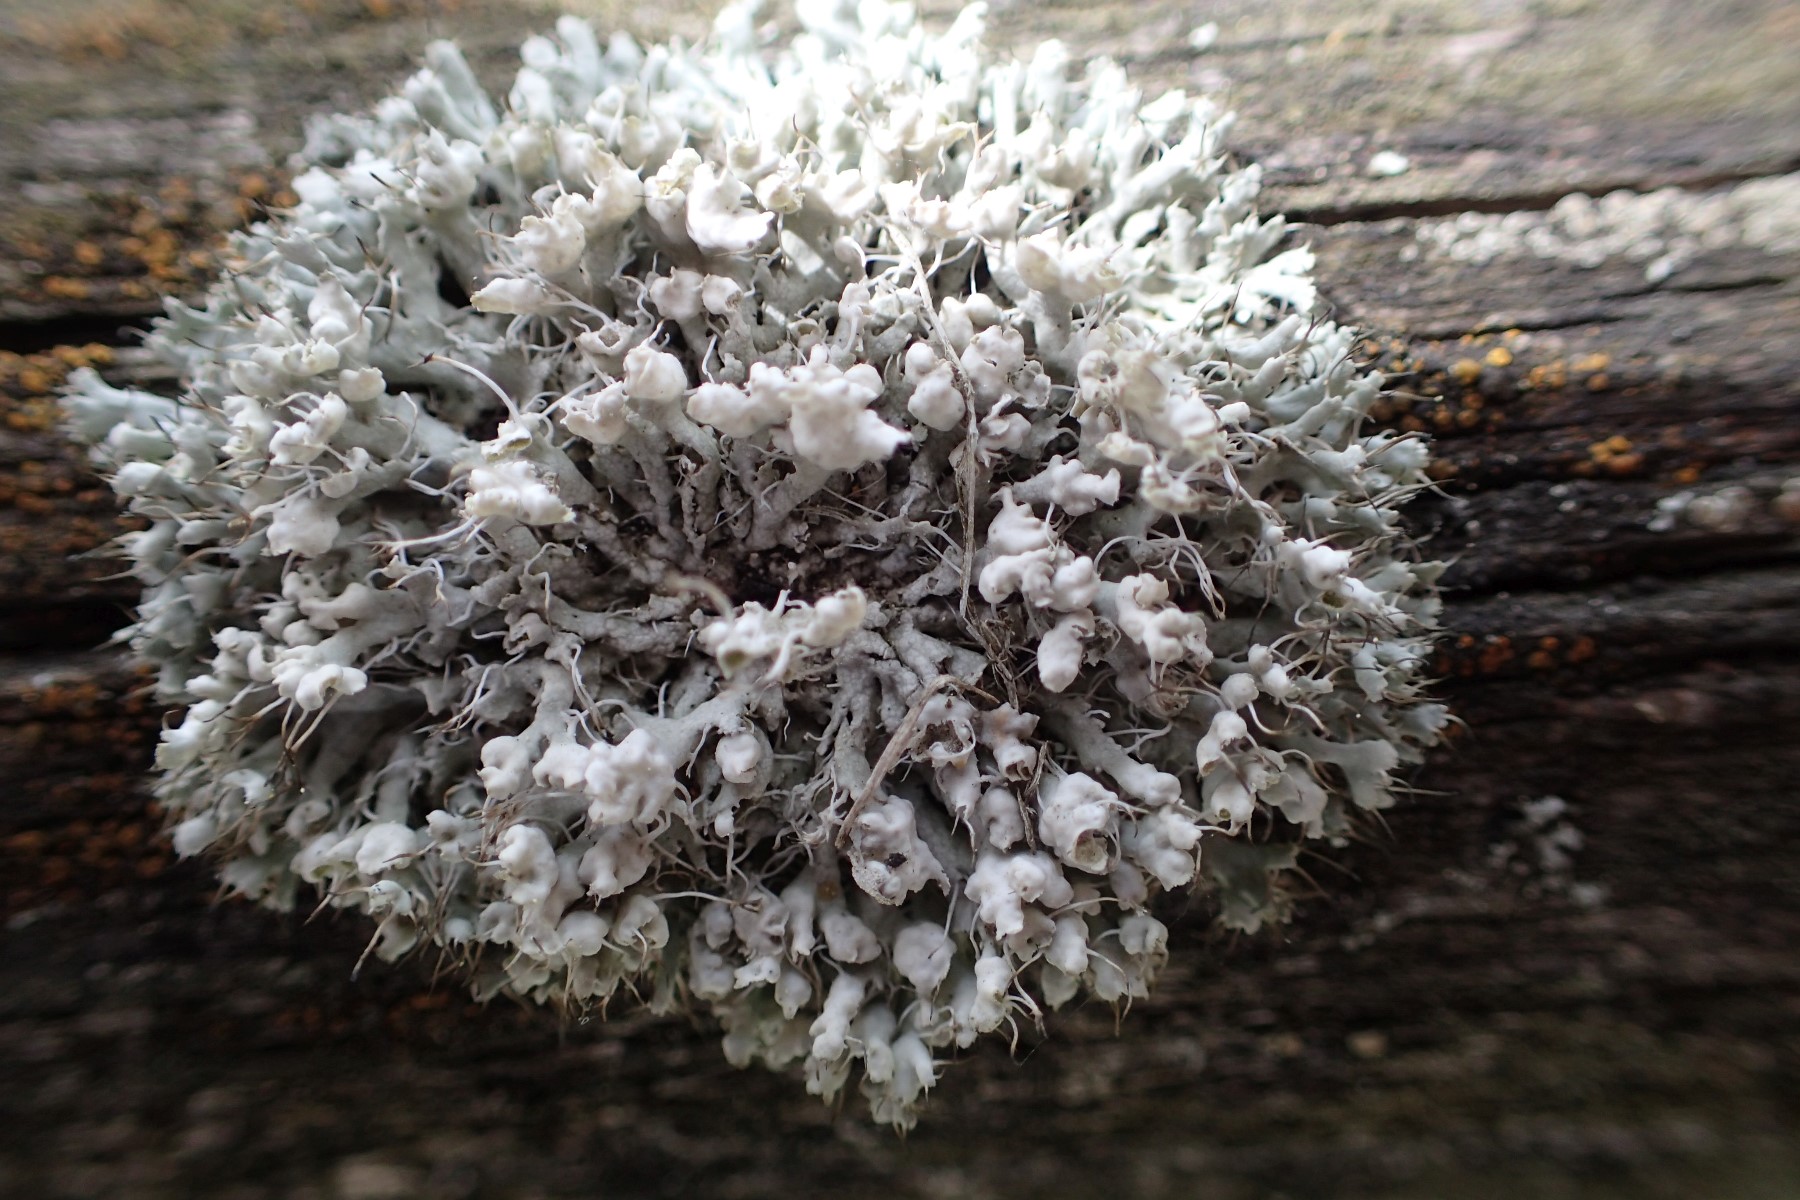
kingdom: Fungi
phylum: Ascomycota
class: Lecanoromycetes
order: Caliciales
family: Physciaceae
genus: Physcia
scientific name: Physcia adscendens
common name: hætte-rosetlav
